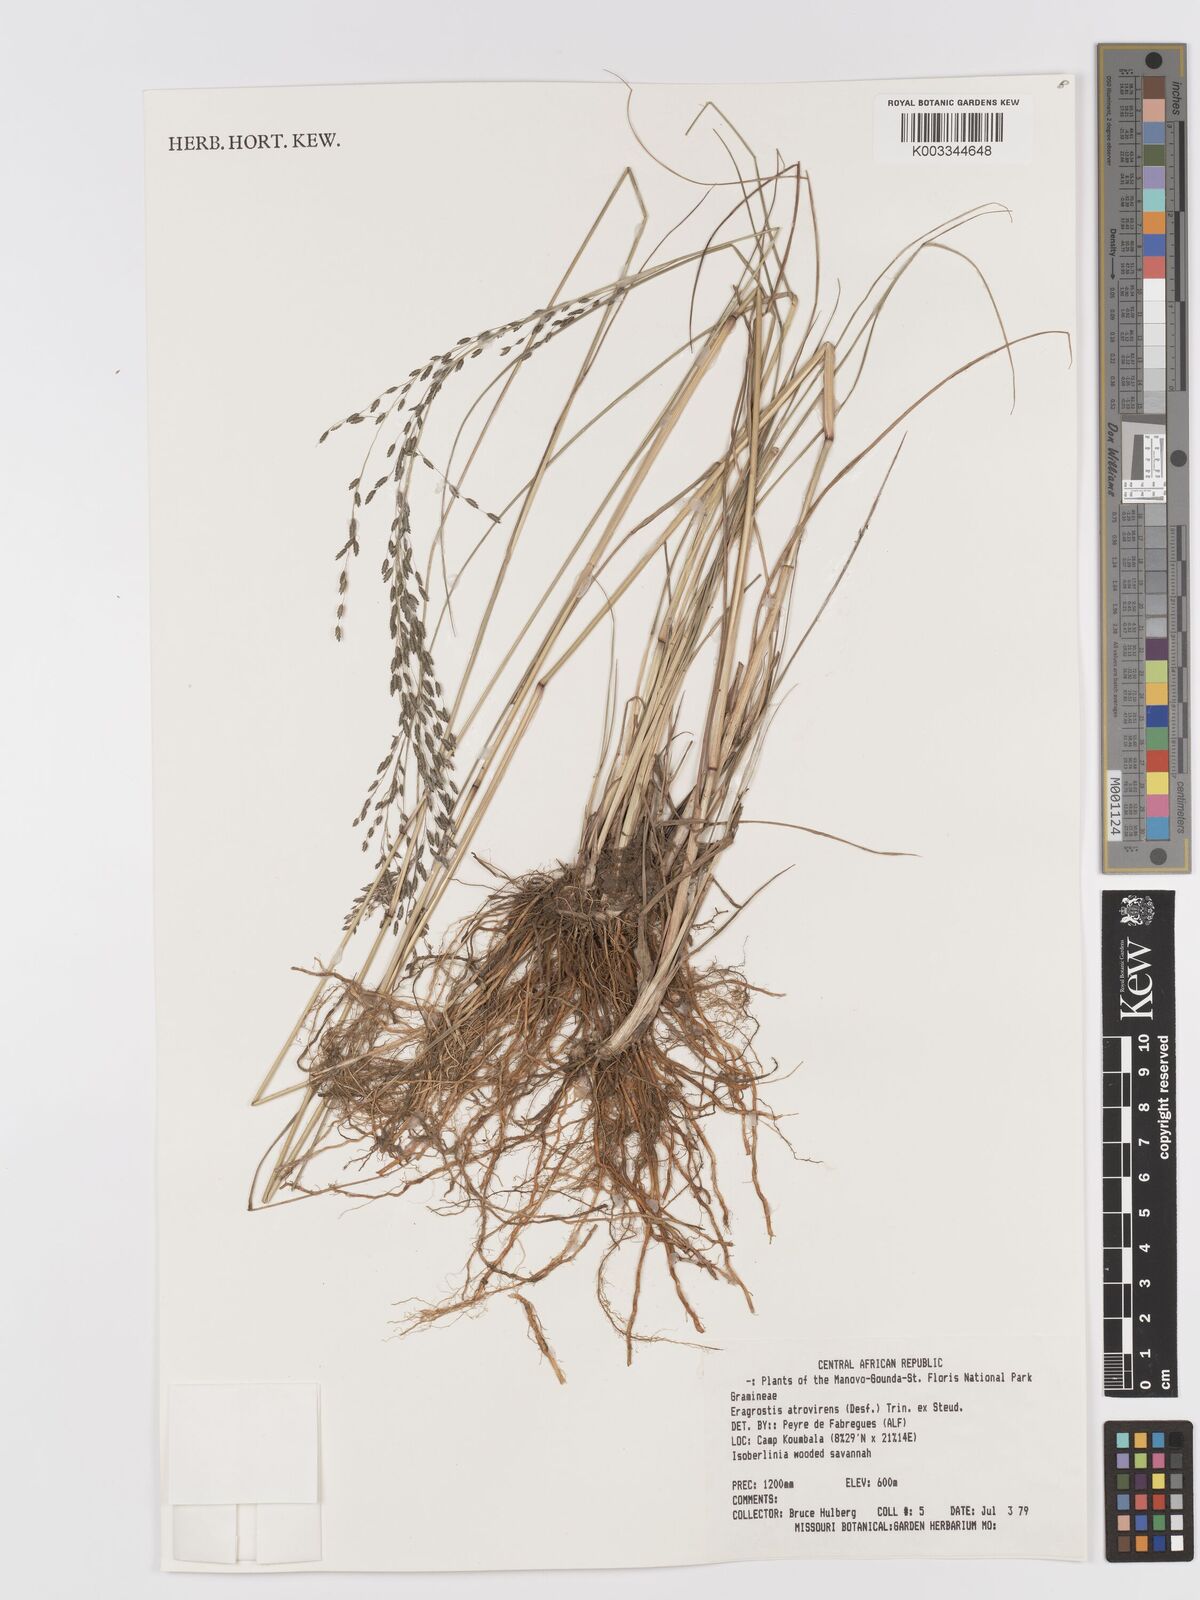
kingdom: Plantae
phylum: Tracheophyta
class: Liliopsida
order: Poales
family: Poaceae
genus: Eragrostis
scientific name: Eragrostis atrovirens
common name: Thalia lovegrass
